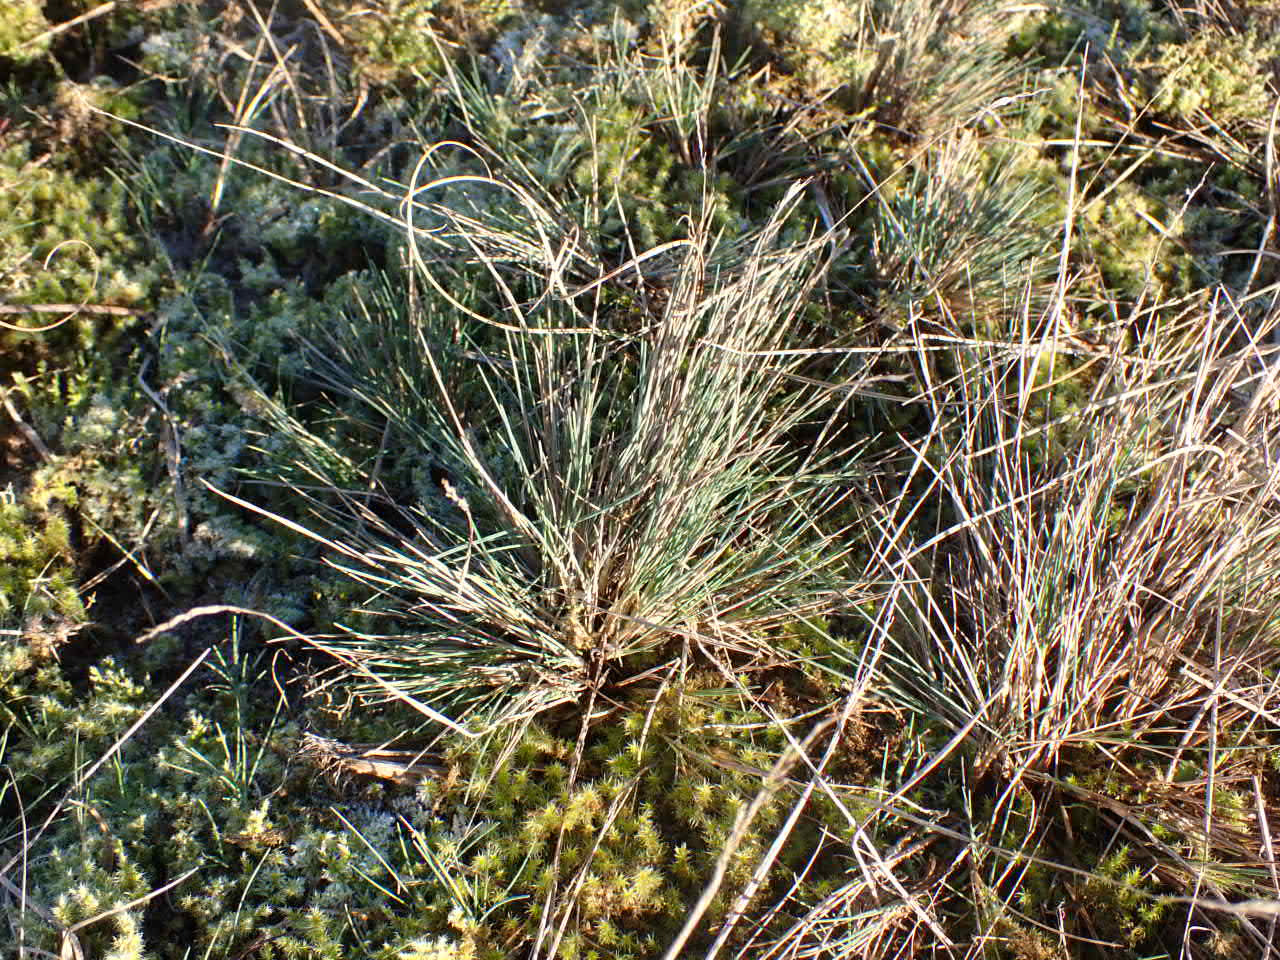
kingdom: Plantae
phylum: Tracheophyta
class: Liliopsida
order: Poales
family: Poaceae
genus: Corynephorus
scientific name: Corynephorus canescens
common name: Sandskæg
